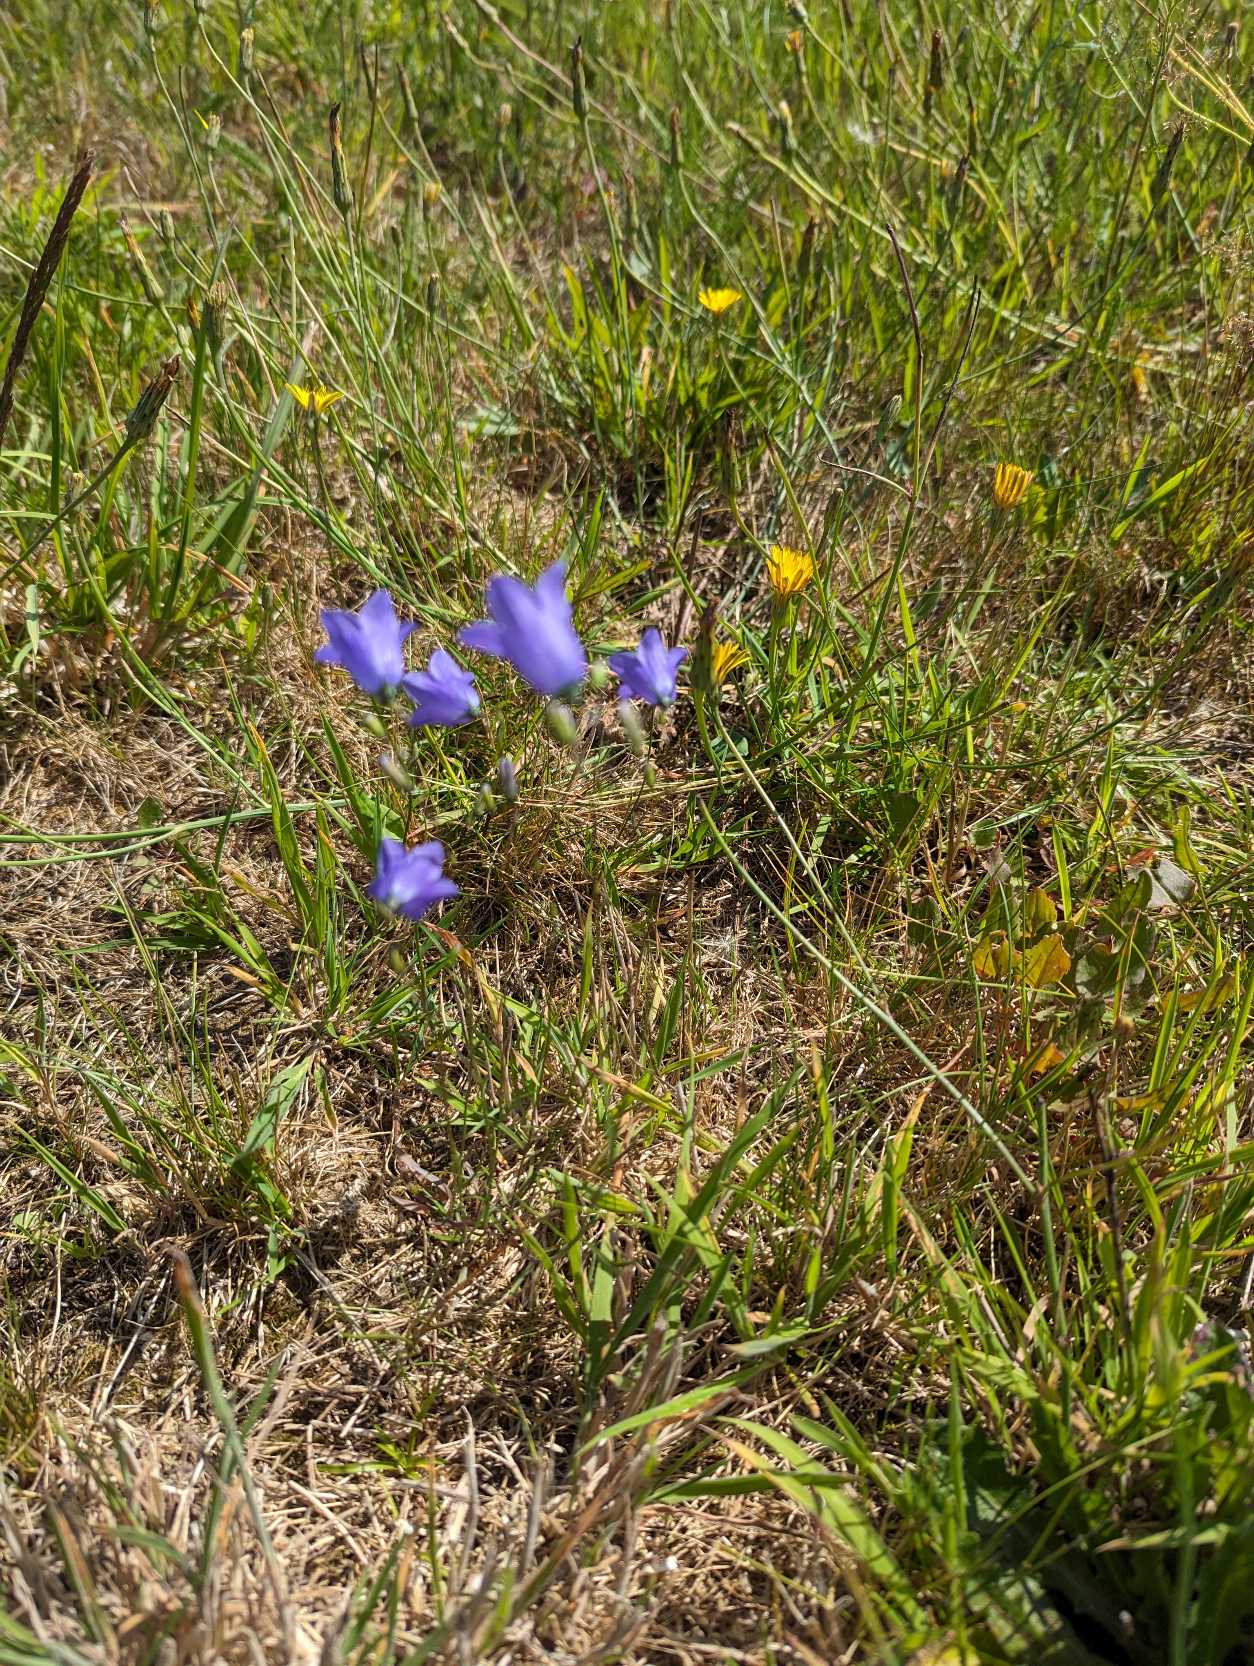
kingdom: Plantae
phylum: Tracheophyta
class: Magnoliopsida
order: Asterales
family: Campanulaceae
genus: Campanula
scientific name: Campanula rotundifolia
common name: Liden klokke
